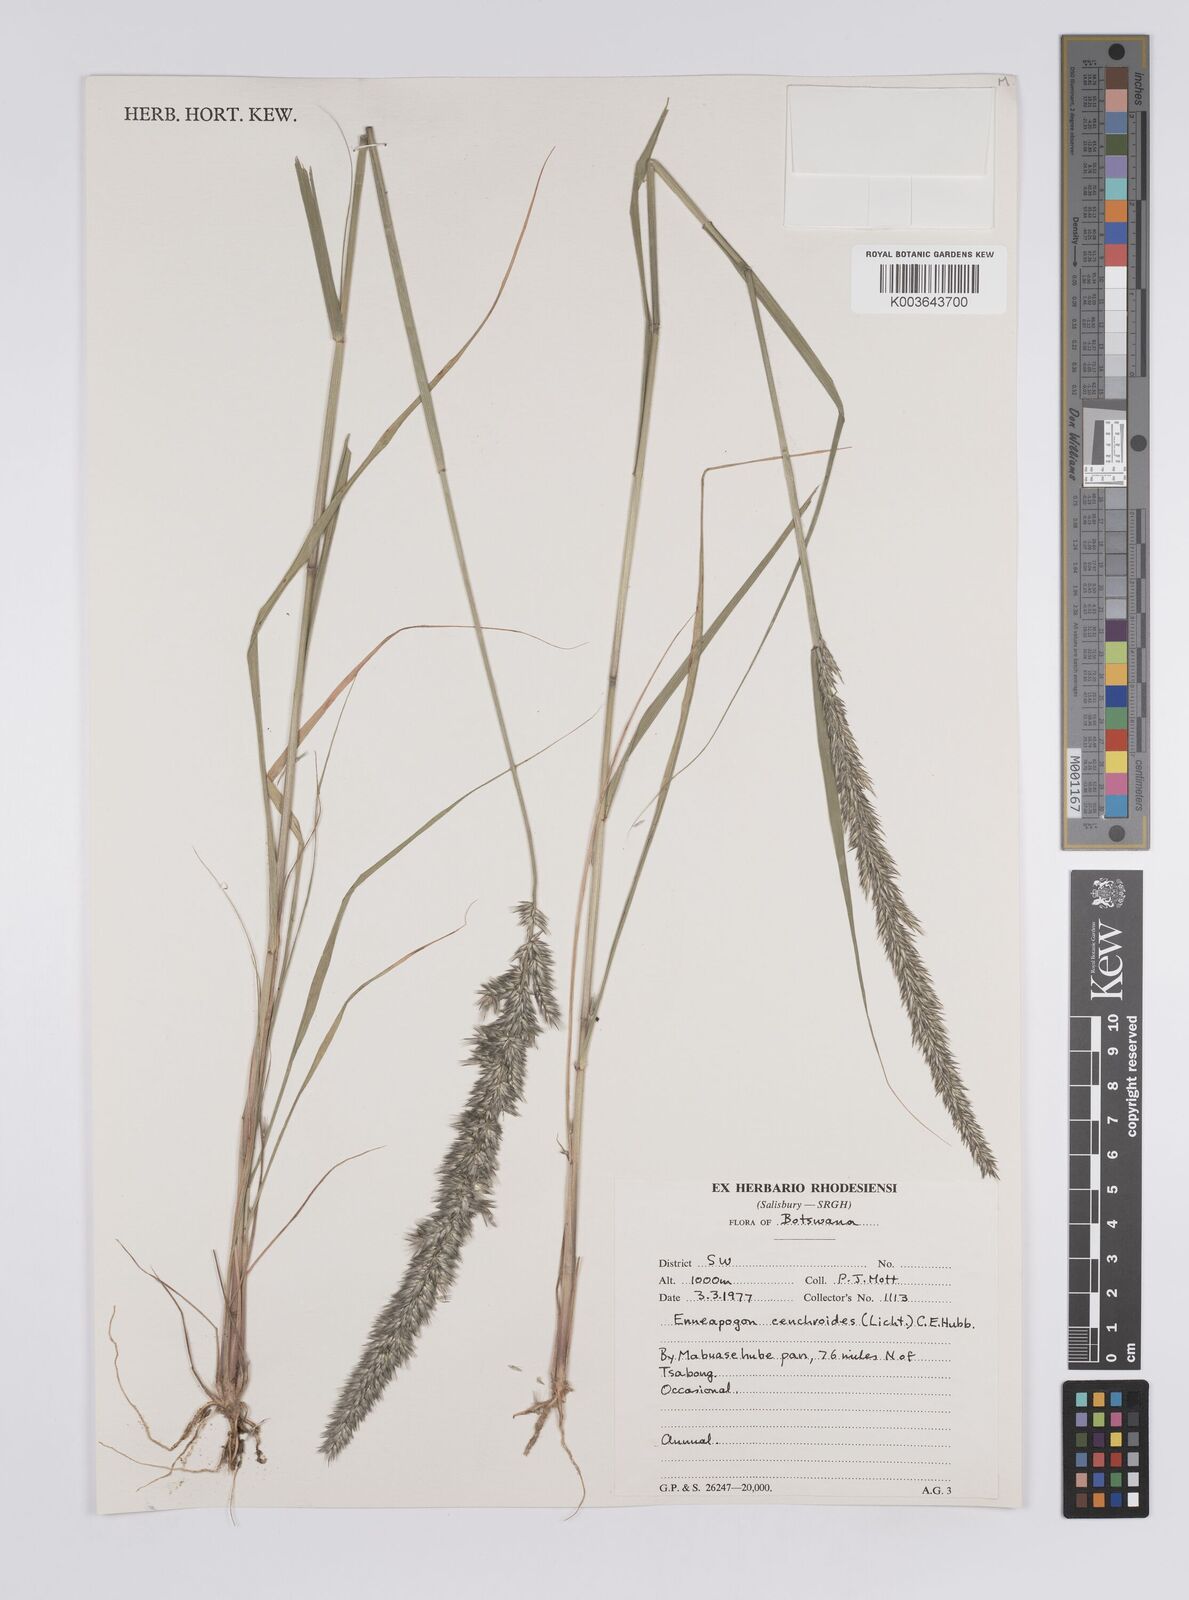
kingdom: Plantae
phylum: Tracheophyta
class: Liliopsida
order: Poales
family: Poaceae
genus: Enneapogon
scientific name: Enneapogon cenchroides
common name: Soft feather pappusgrass
